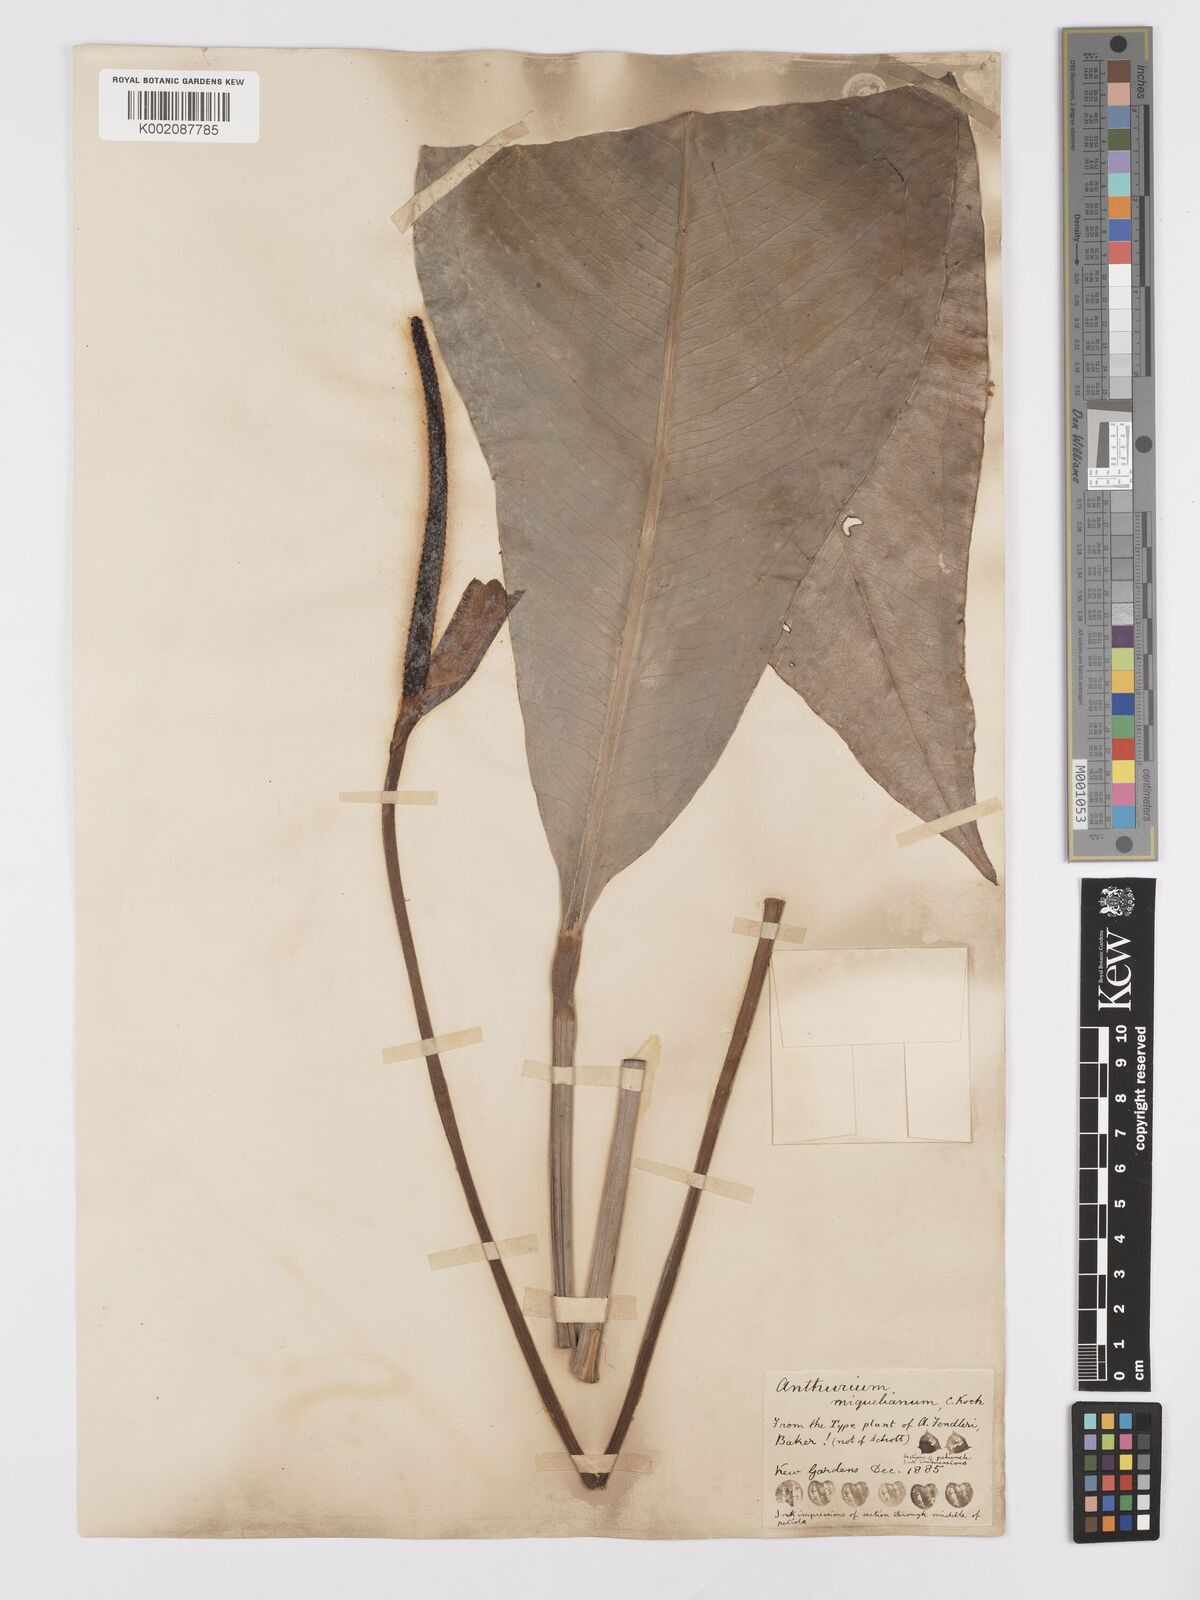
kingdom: Plantae
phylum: Tracheophyta
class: Liliopsida
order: Alismatales
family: Araceae
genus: Anthurium
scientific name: Anthurium parasiticum
